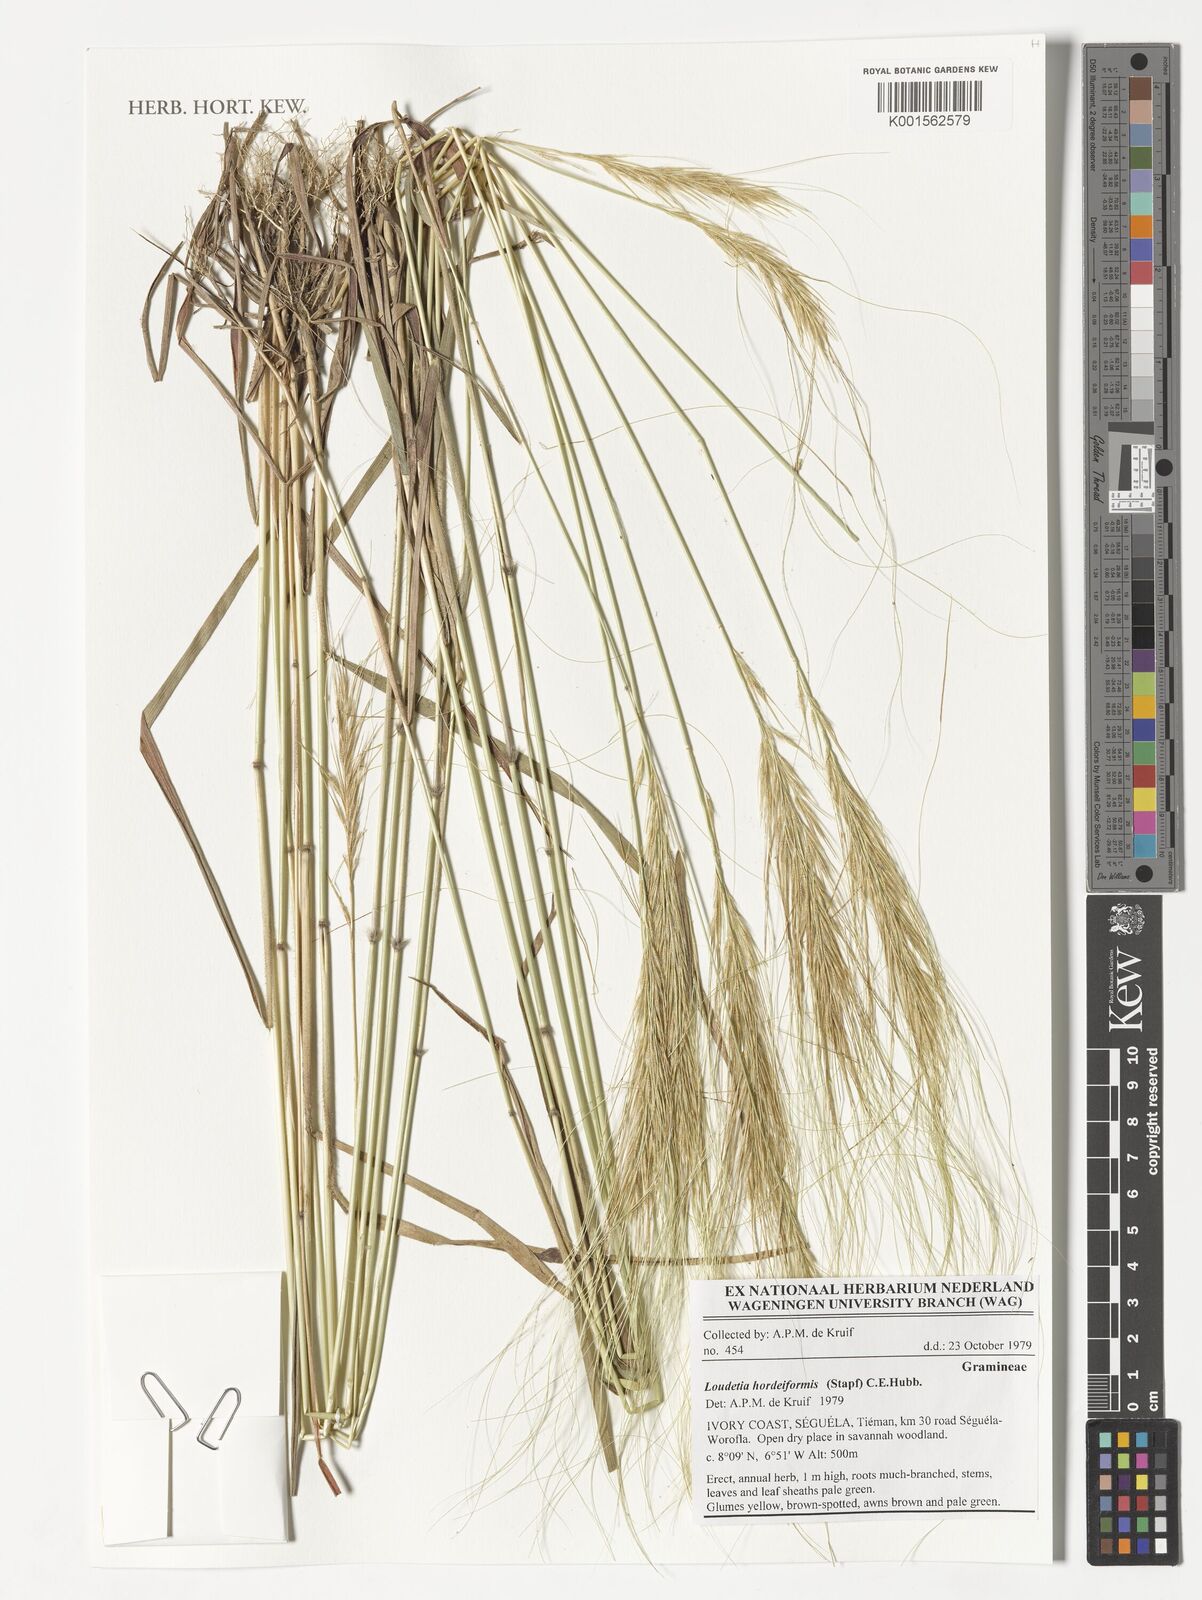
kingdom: Plantae
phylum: Tracheophyta
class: Liliopsida
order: Poales
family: Poaceae
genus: Loudetia
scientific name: Loudetia hordeiformis
